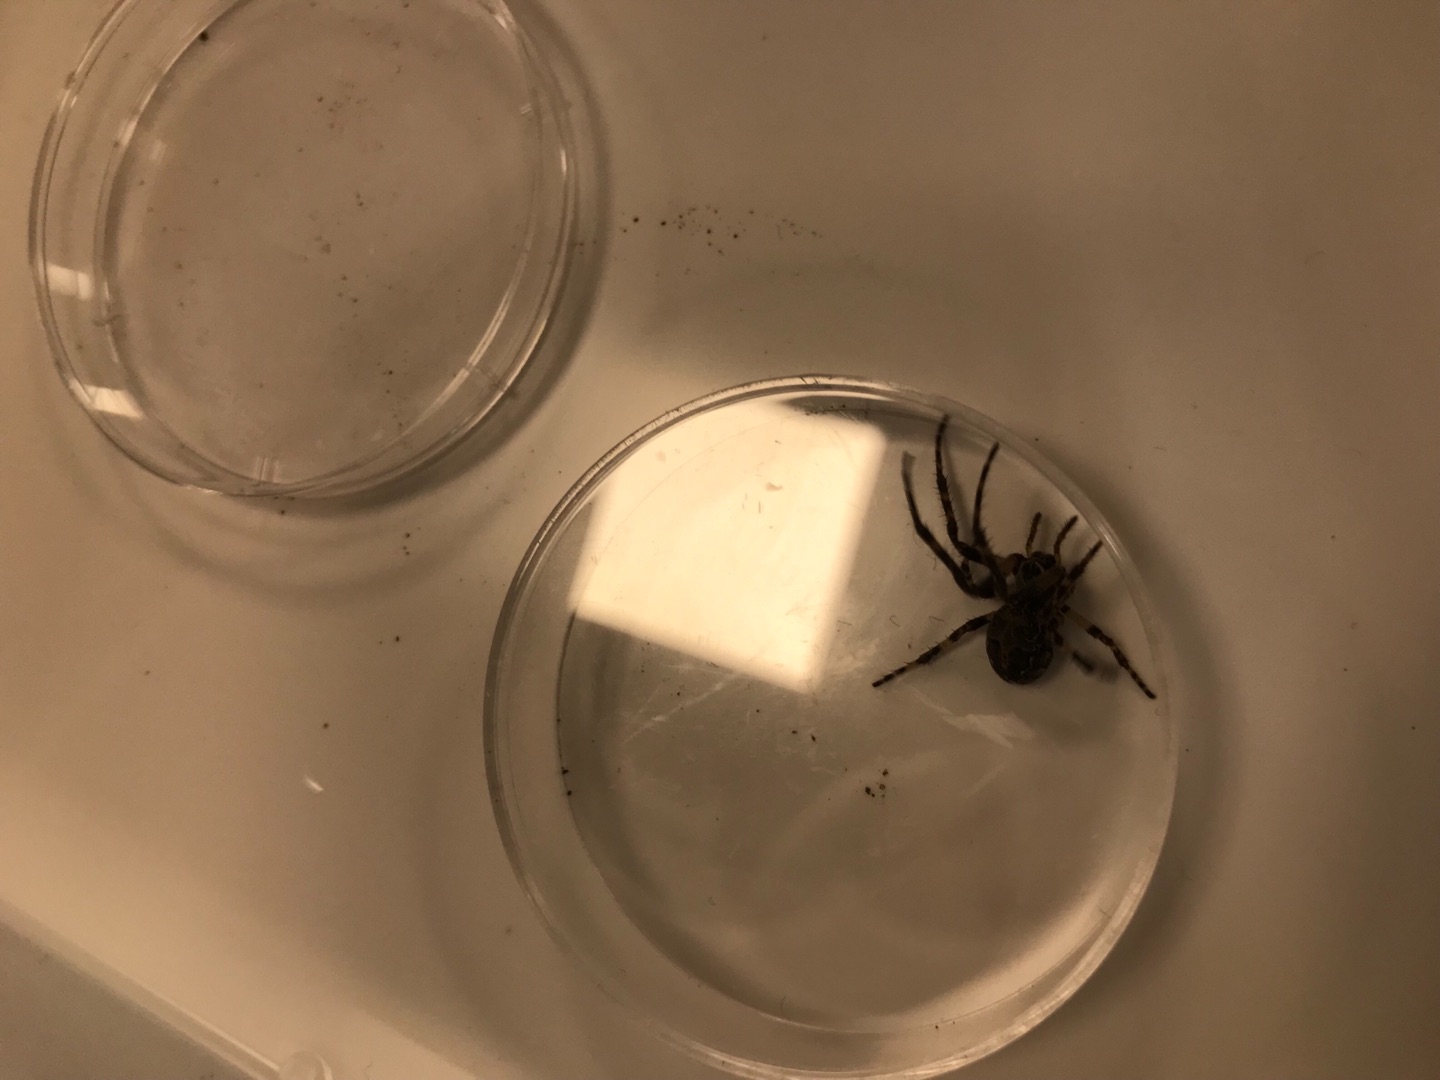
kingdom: Animalia
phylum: Arthropoda
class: Arachnida
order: Araneae
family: Araneidae
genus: Larinioides
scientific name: Larinioides sclopetarius
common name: Bolværksedderkop
